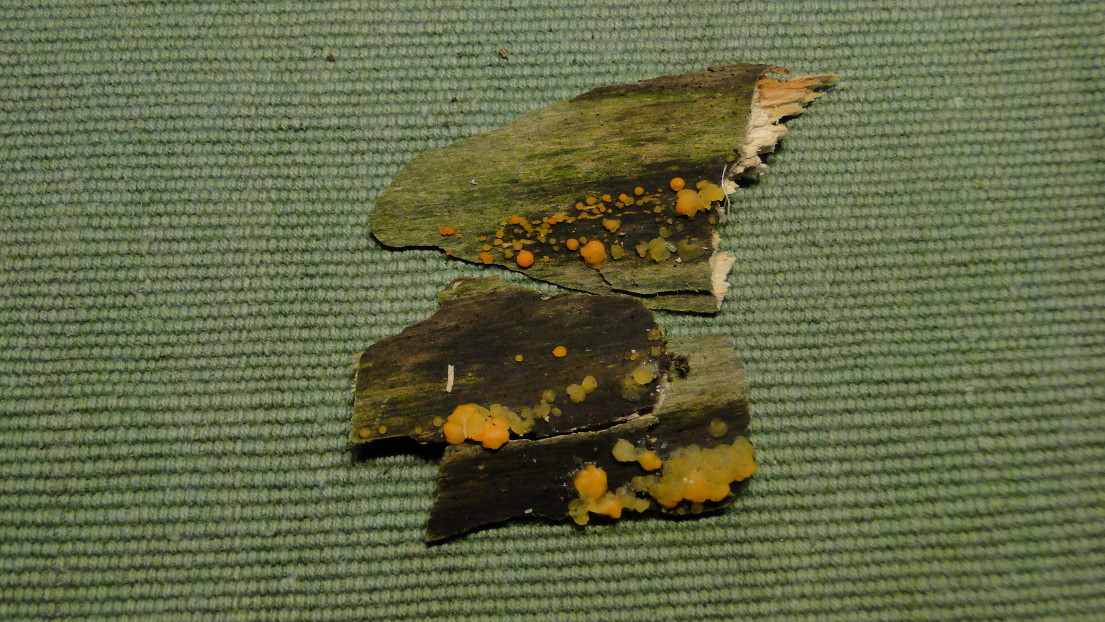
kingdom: Fungi
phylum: Basidiomycota
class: Dacrymycetes
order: Dacrymycetales
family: Dacrymycetaceae
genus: Dacrymyces
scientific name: Dacrymyces stillatus
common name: almindelig tåresvamp
